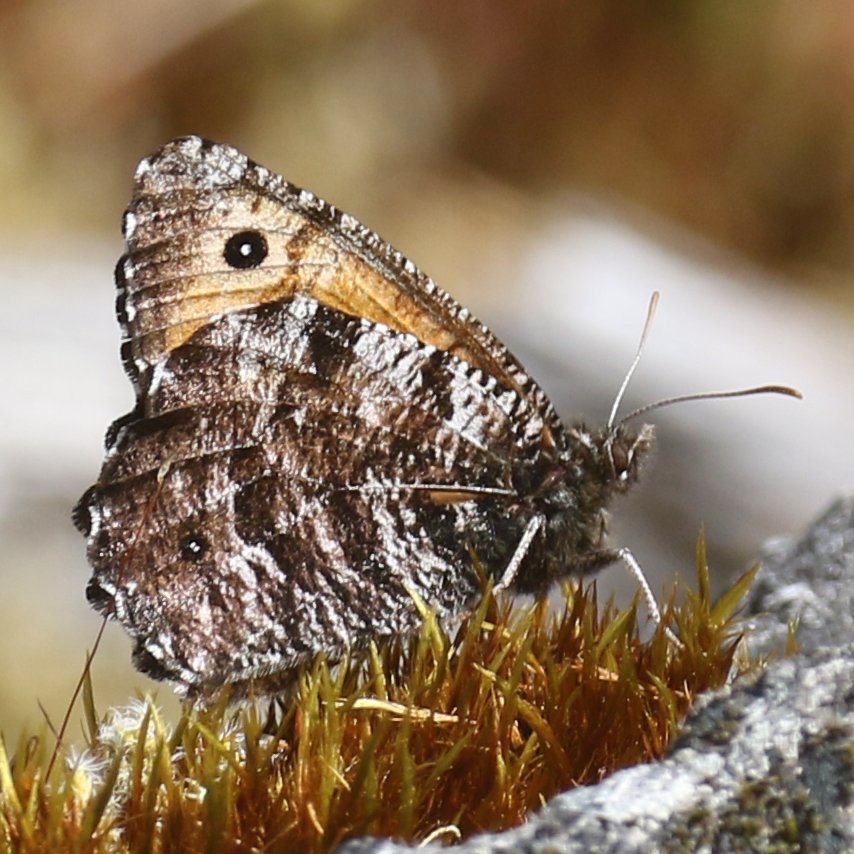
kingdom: Animalia
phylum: Arthropoda
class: Insecta
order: Lepidoptera
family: Nymphalidae
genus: Oeneis
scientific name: Oeneis nevadensis
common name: Great Arctic
